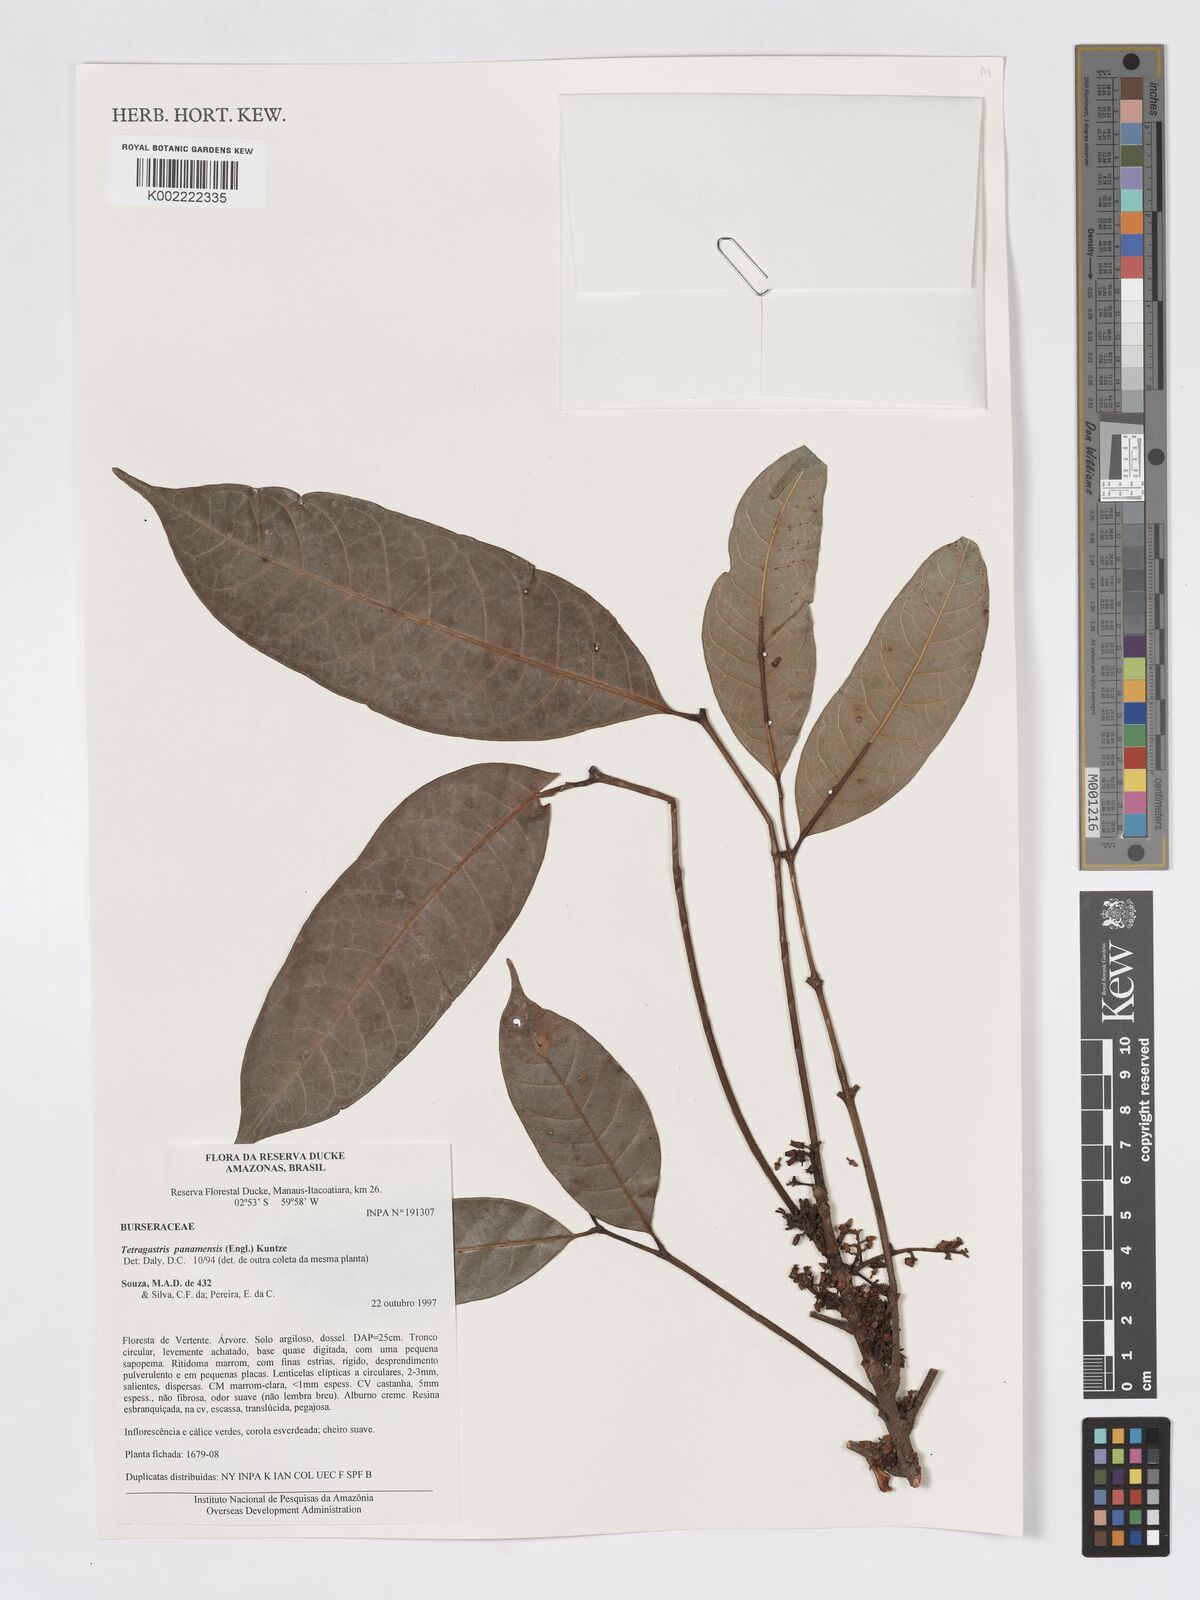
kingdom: Plantae
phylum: Tracheophyta
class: Magnoliopsida
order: Sapindales
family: Burseraceae
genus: Tetragastris
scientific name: Tetragastris panamensis
